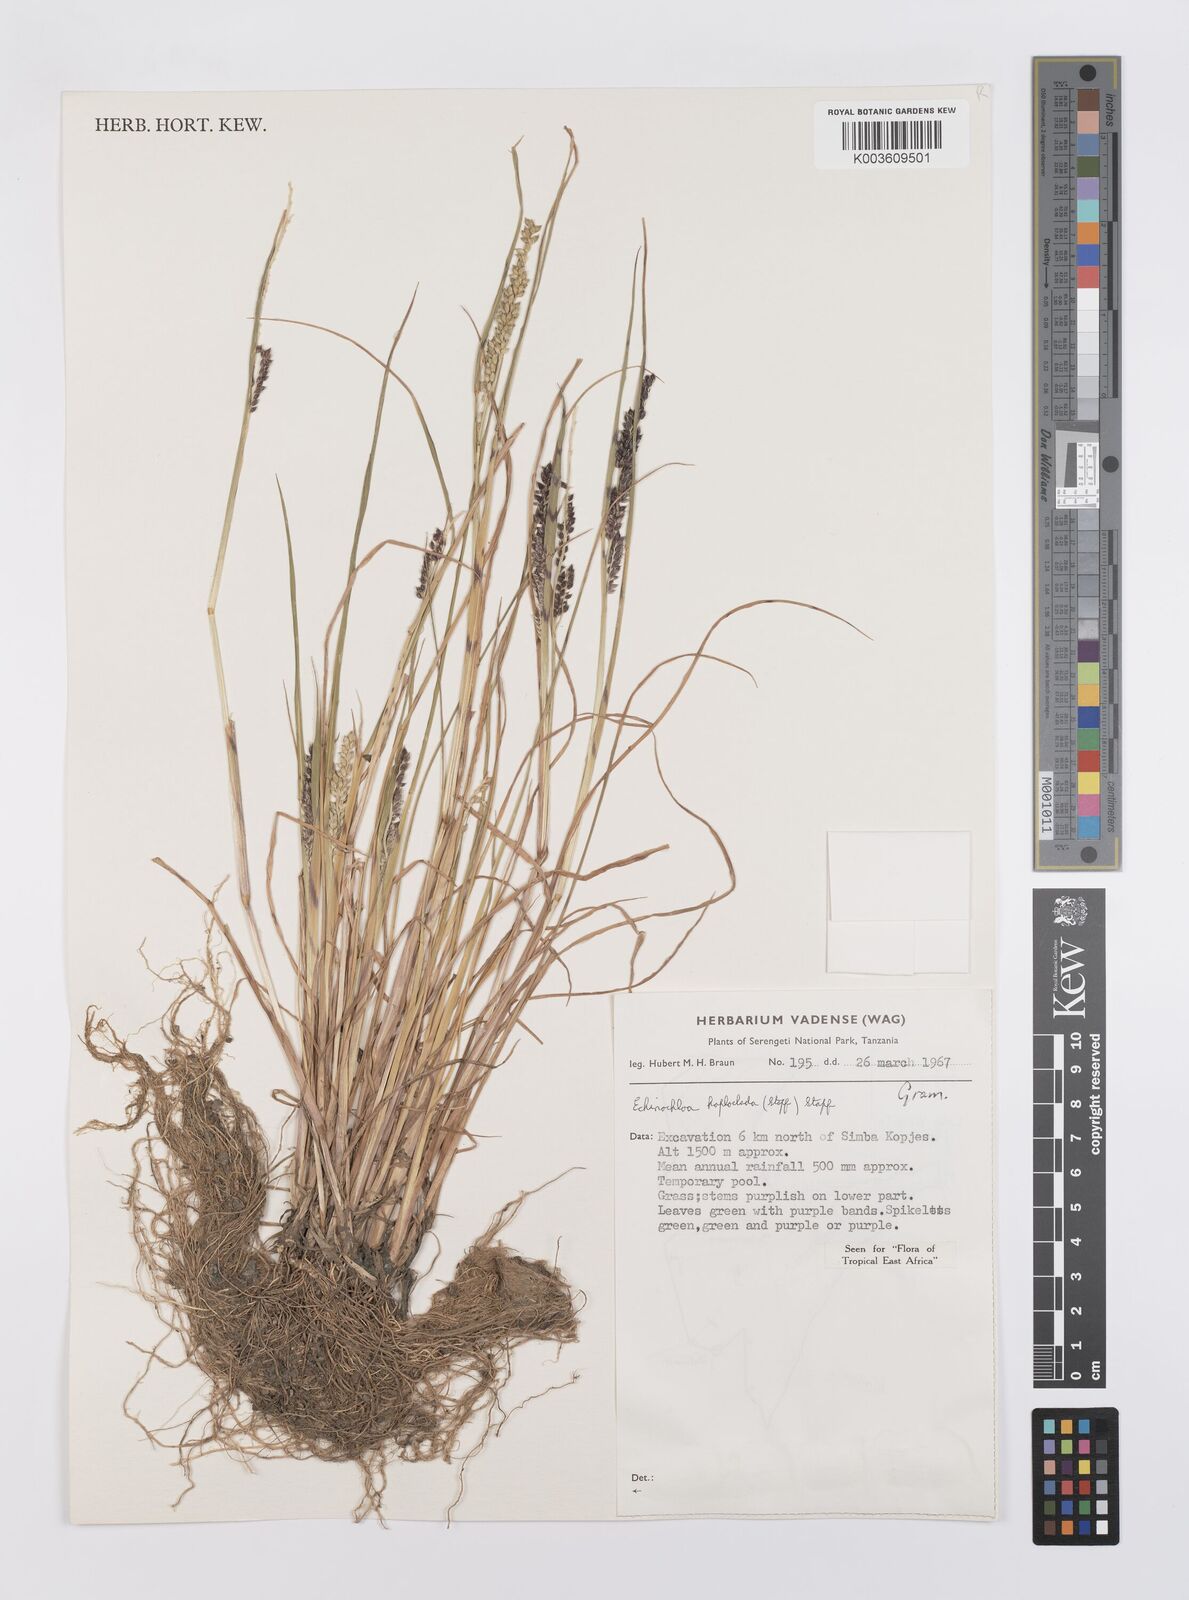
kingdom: Plantae
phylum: Tracheophyta
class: Liliopsida
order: Poales
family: Poaceae
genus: Echinochloa
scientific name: Echinochloa haploclada
